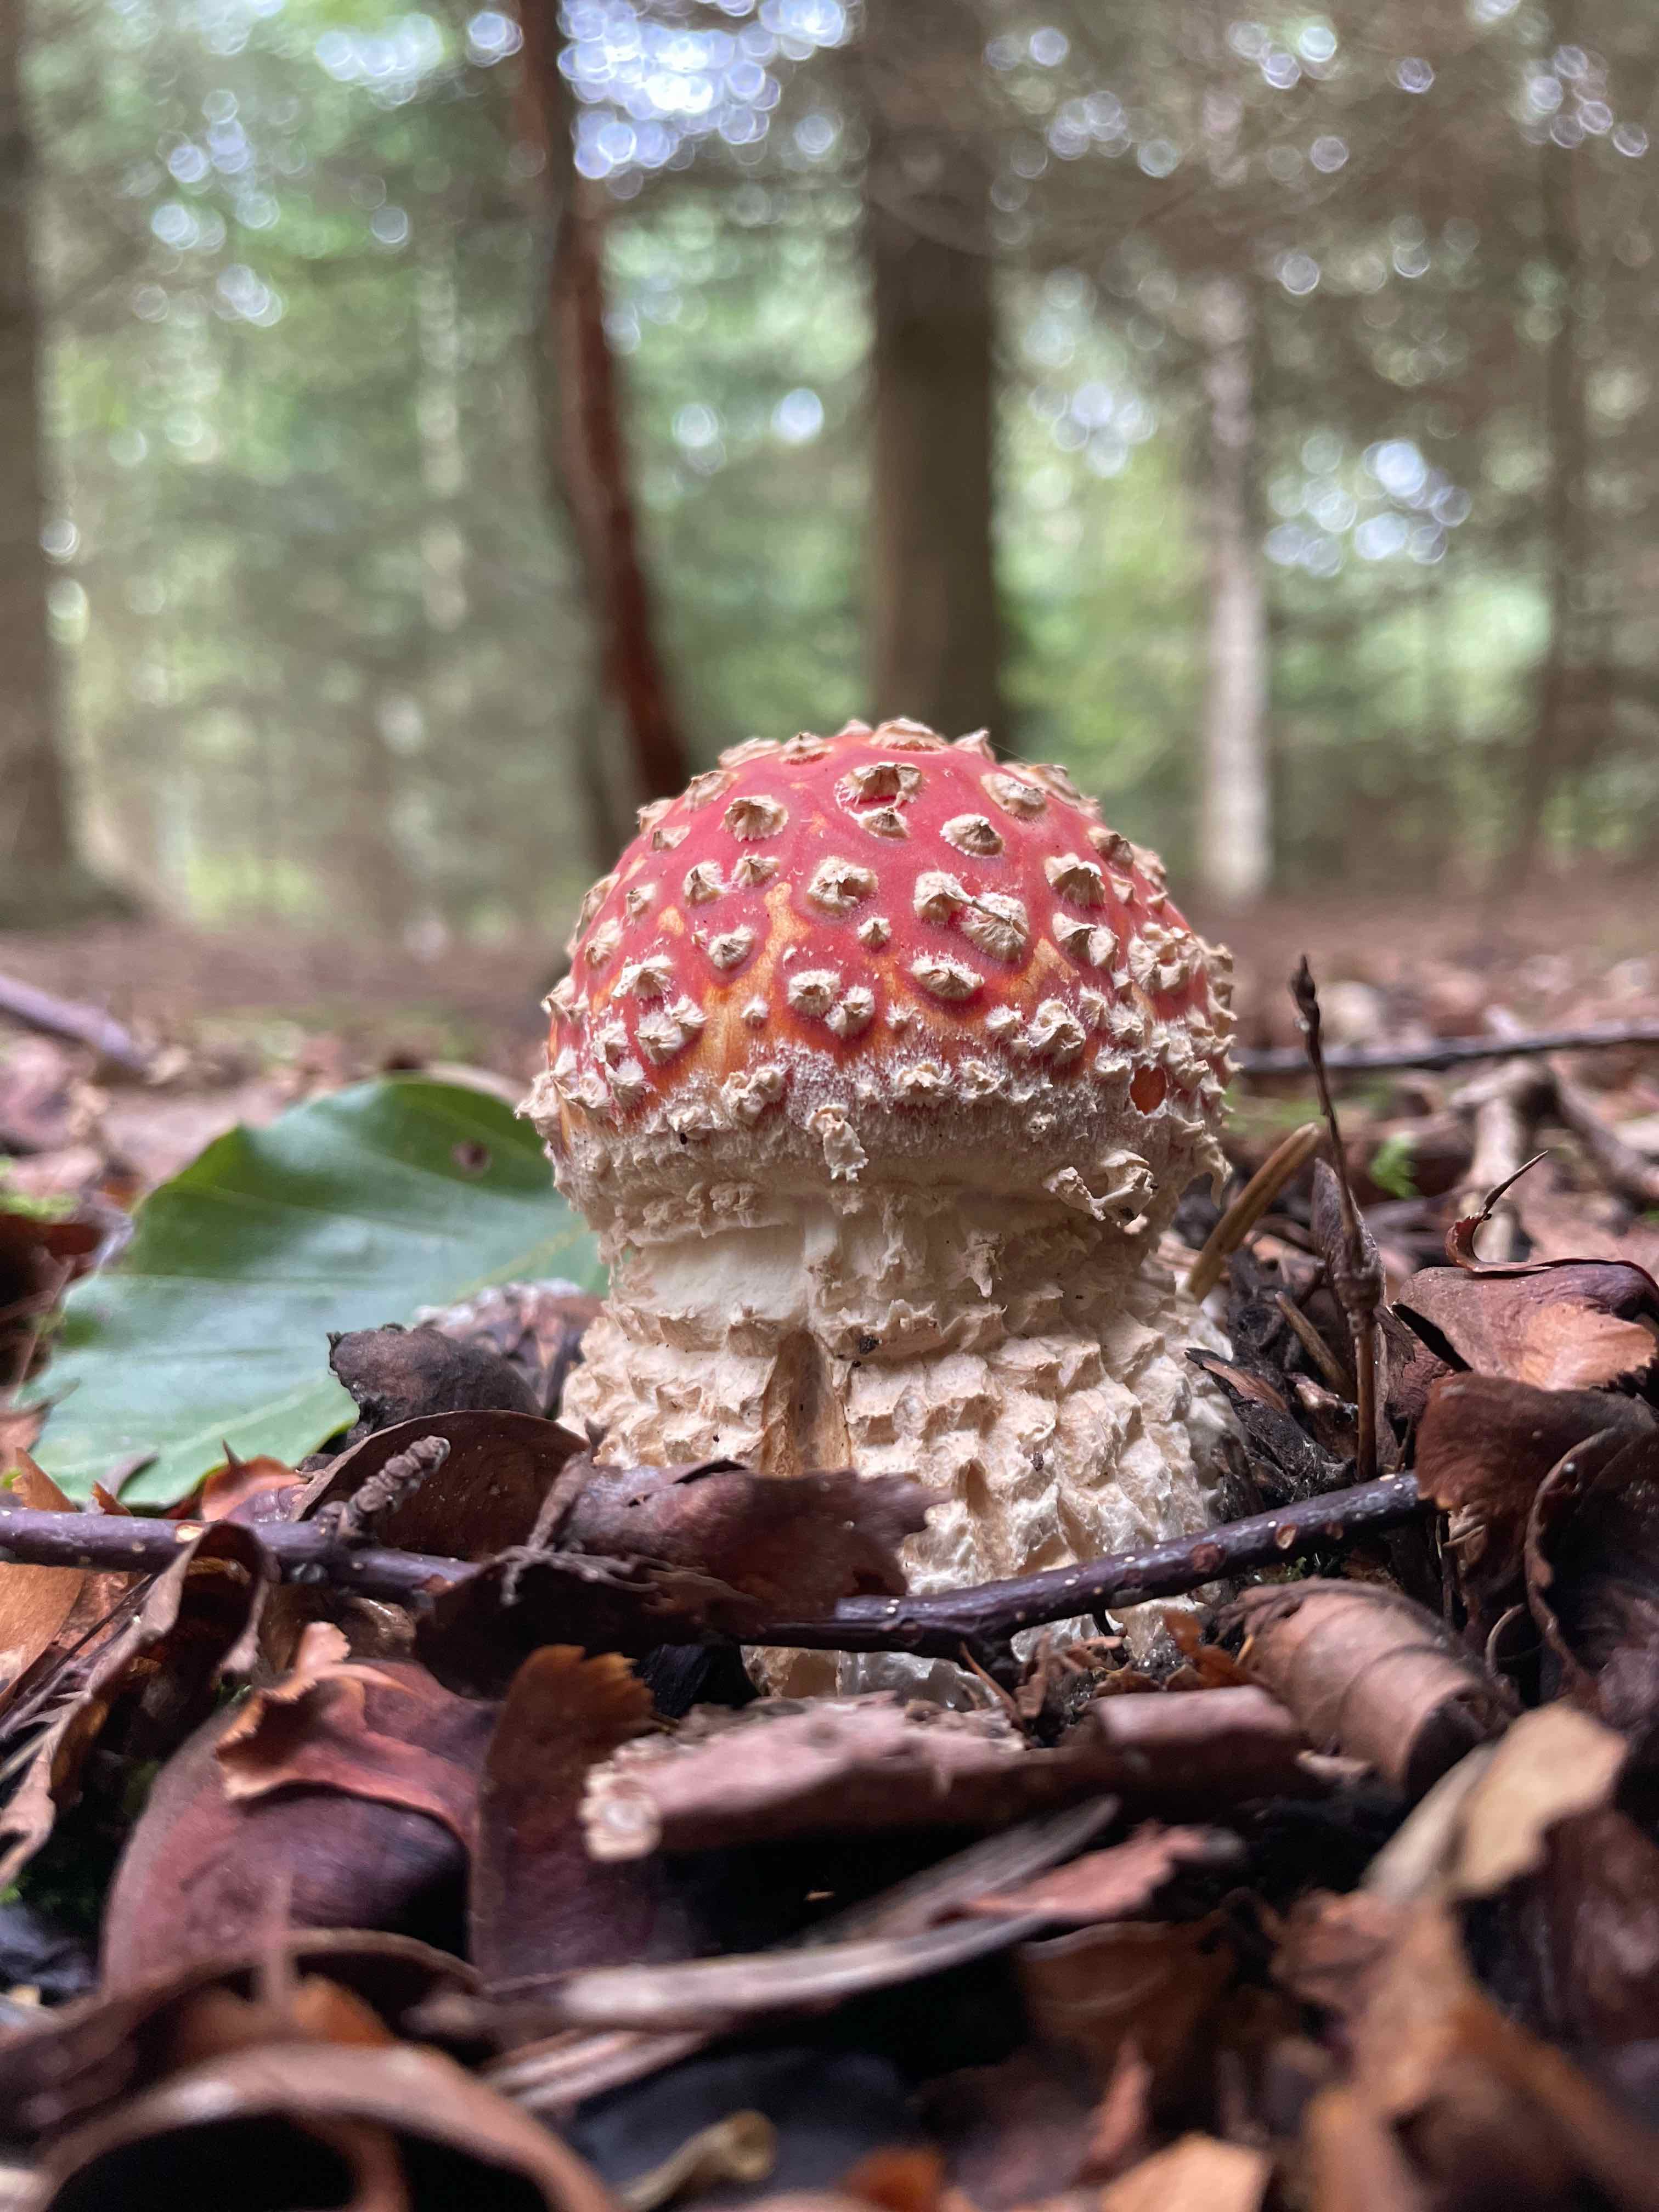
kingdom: Fungi
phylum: Basidiomycota
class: Agaricomycetes
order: Agaricales
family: Amanitaceae
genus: Amanita
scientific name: Amanita muscaria
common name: rød fluesvamp
